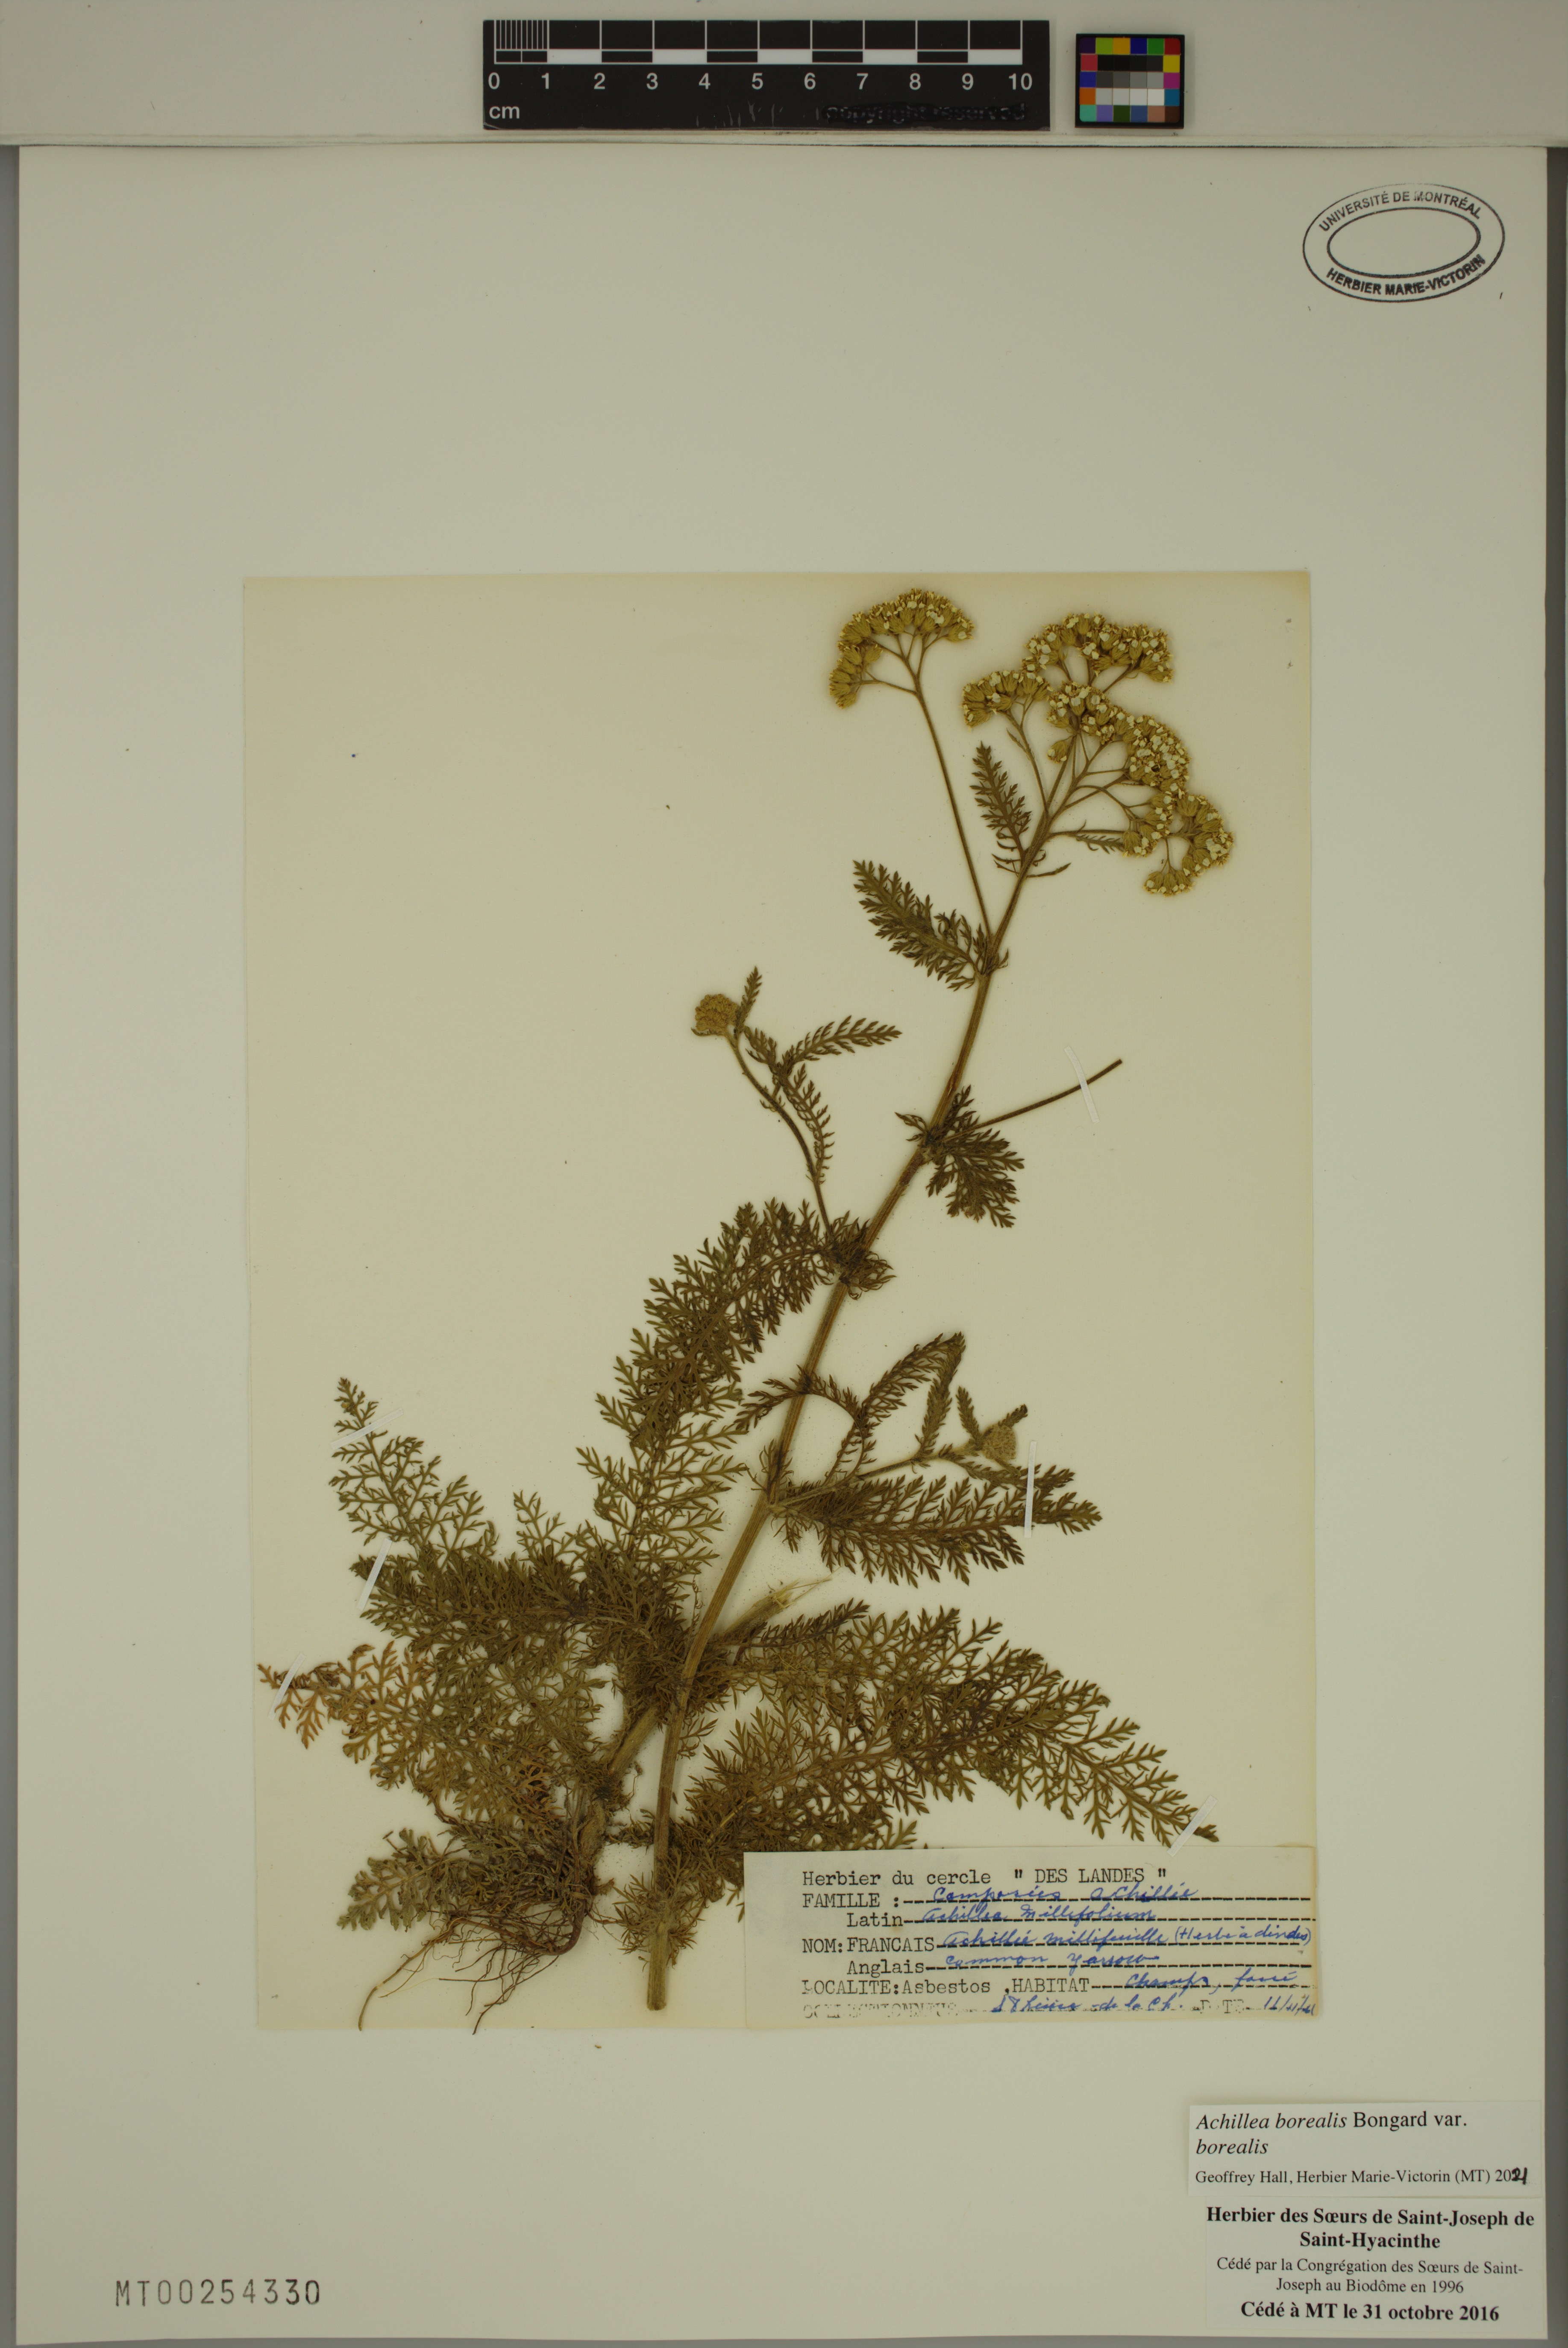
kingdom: Plantae
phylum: Tracheophyta
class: Magnoliopsida
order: Asterales
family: Asteraceae
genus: Achillea
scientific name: Achillea millefolium
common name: Yarrow
